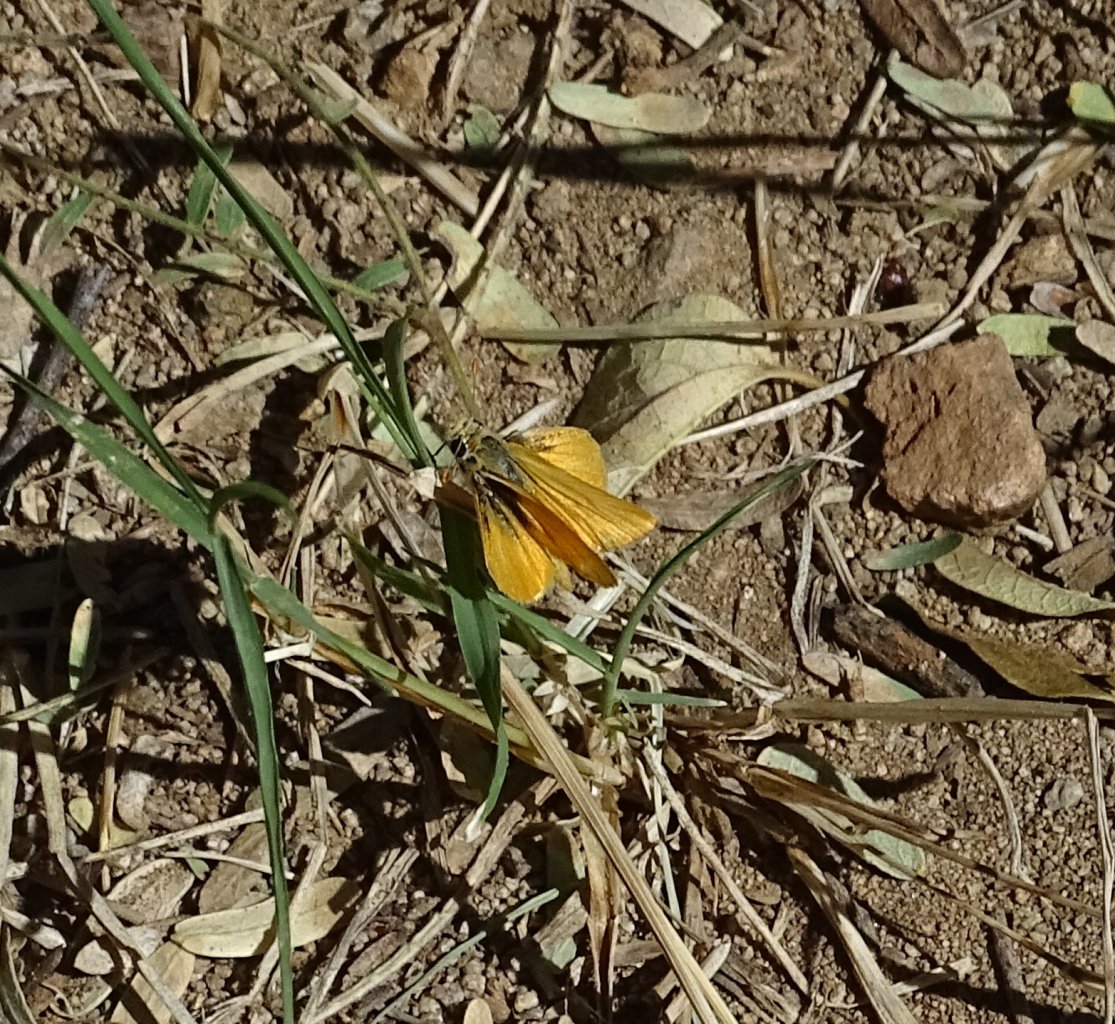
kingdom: Animalia
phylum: Arthropoda
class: Insecta
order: Lepidoptera
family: Hesperiidae
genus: Copaeodes
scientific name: Copaeodes aurantiaca
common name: Orange Skipperling
